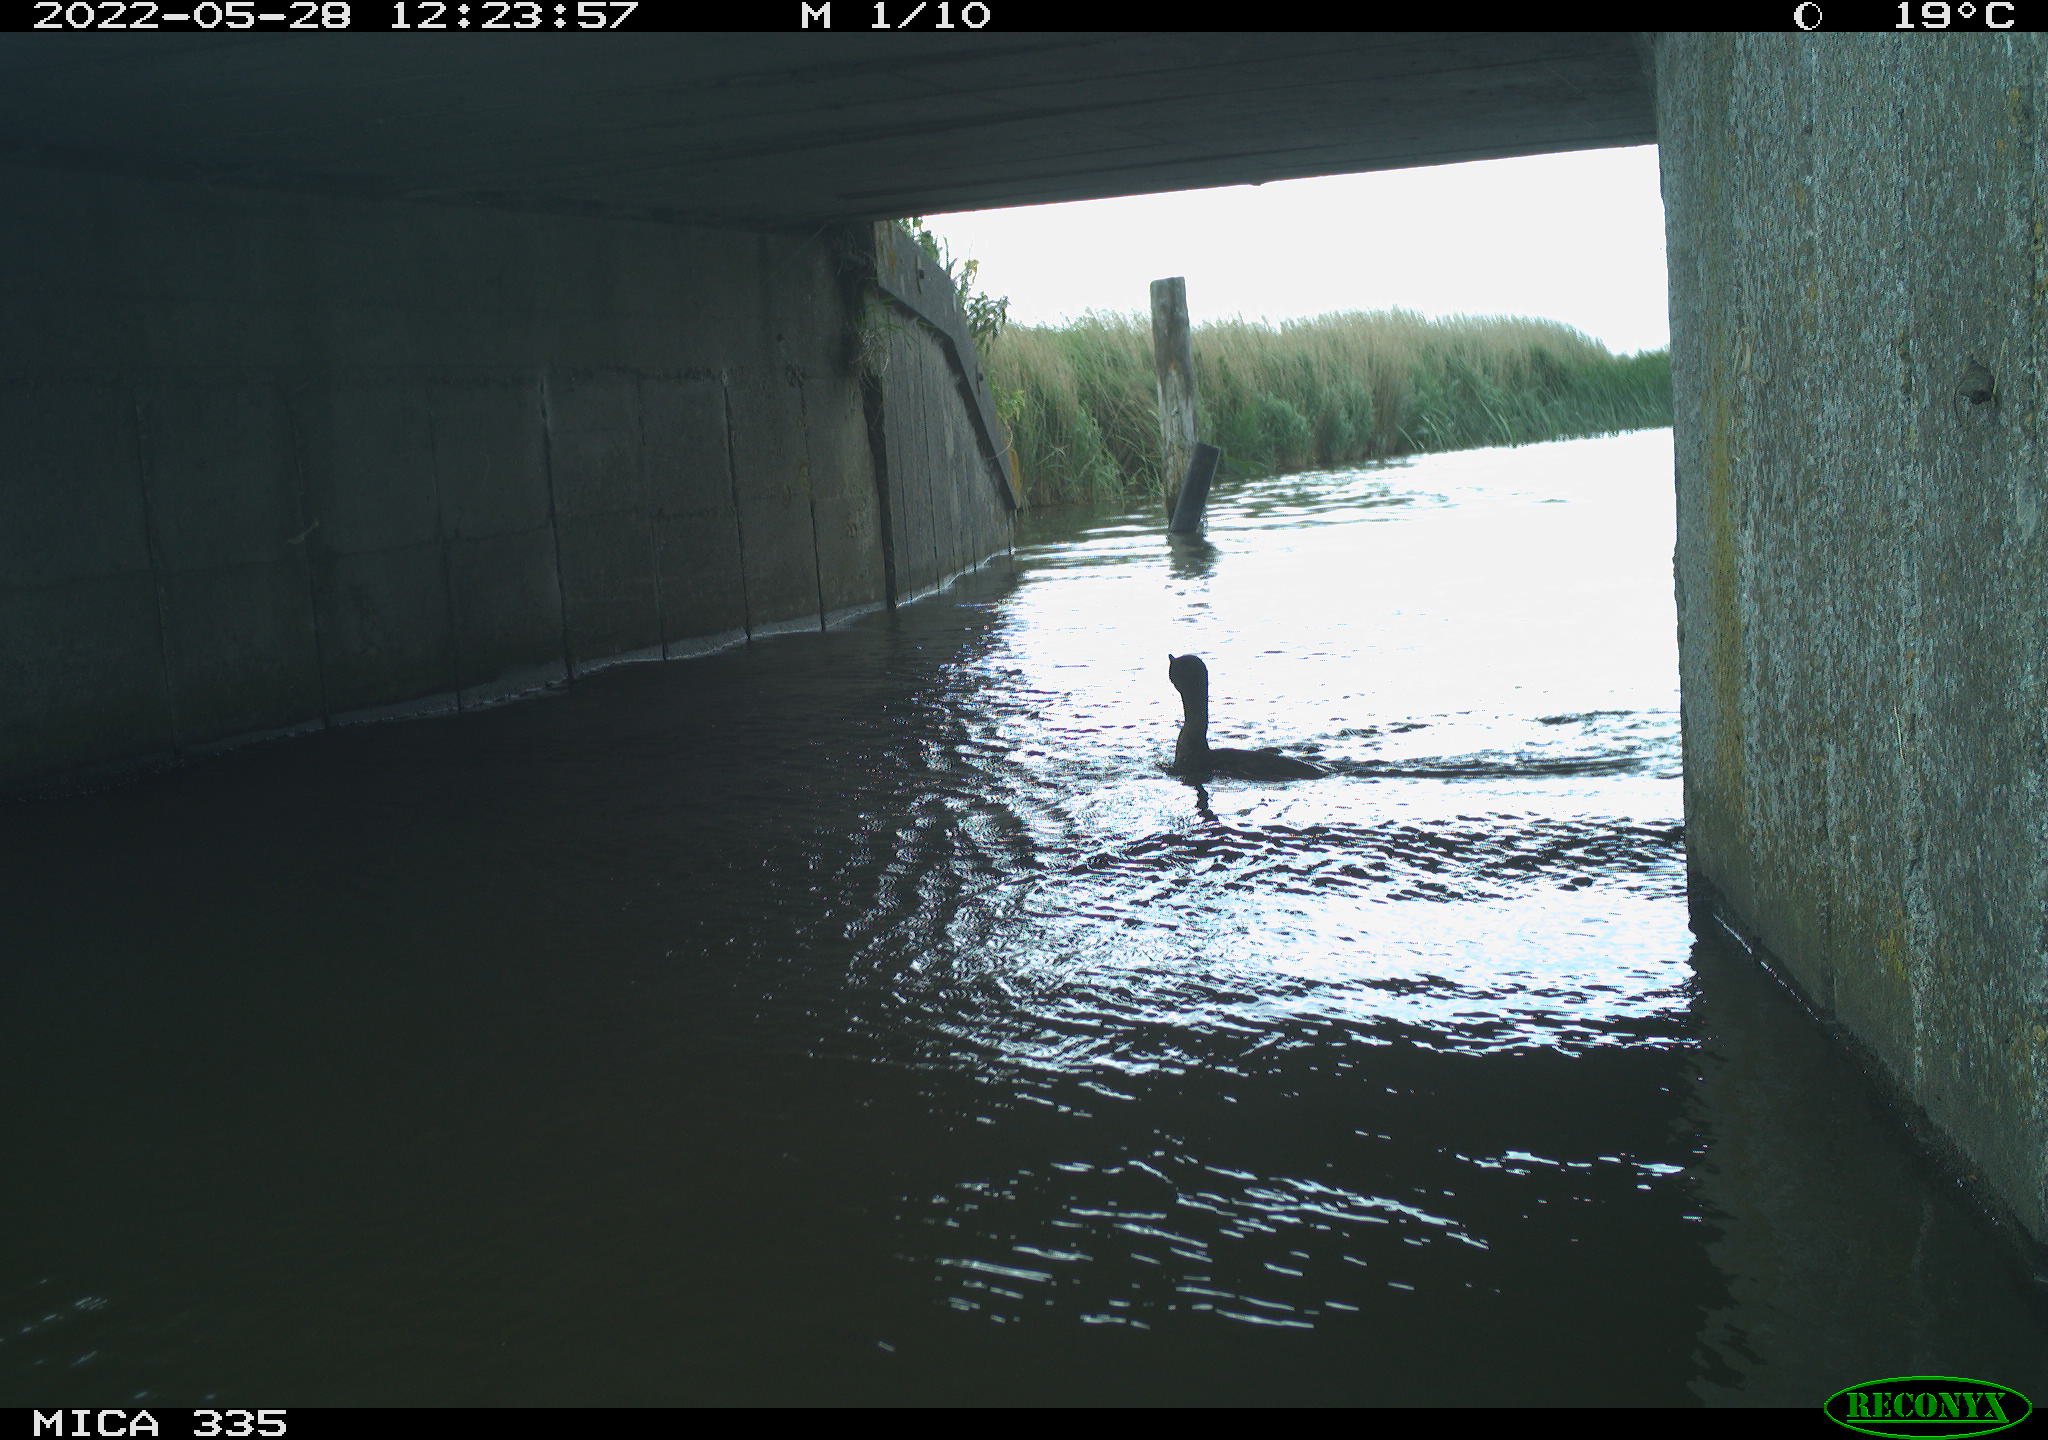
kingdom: Animalia
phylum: Chordata
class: Aves
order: Suliformes
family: Phalacrocoracidae
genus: Phalacrocorax
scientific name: Phalacrocorax carbo
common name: Great cormorant
